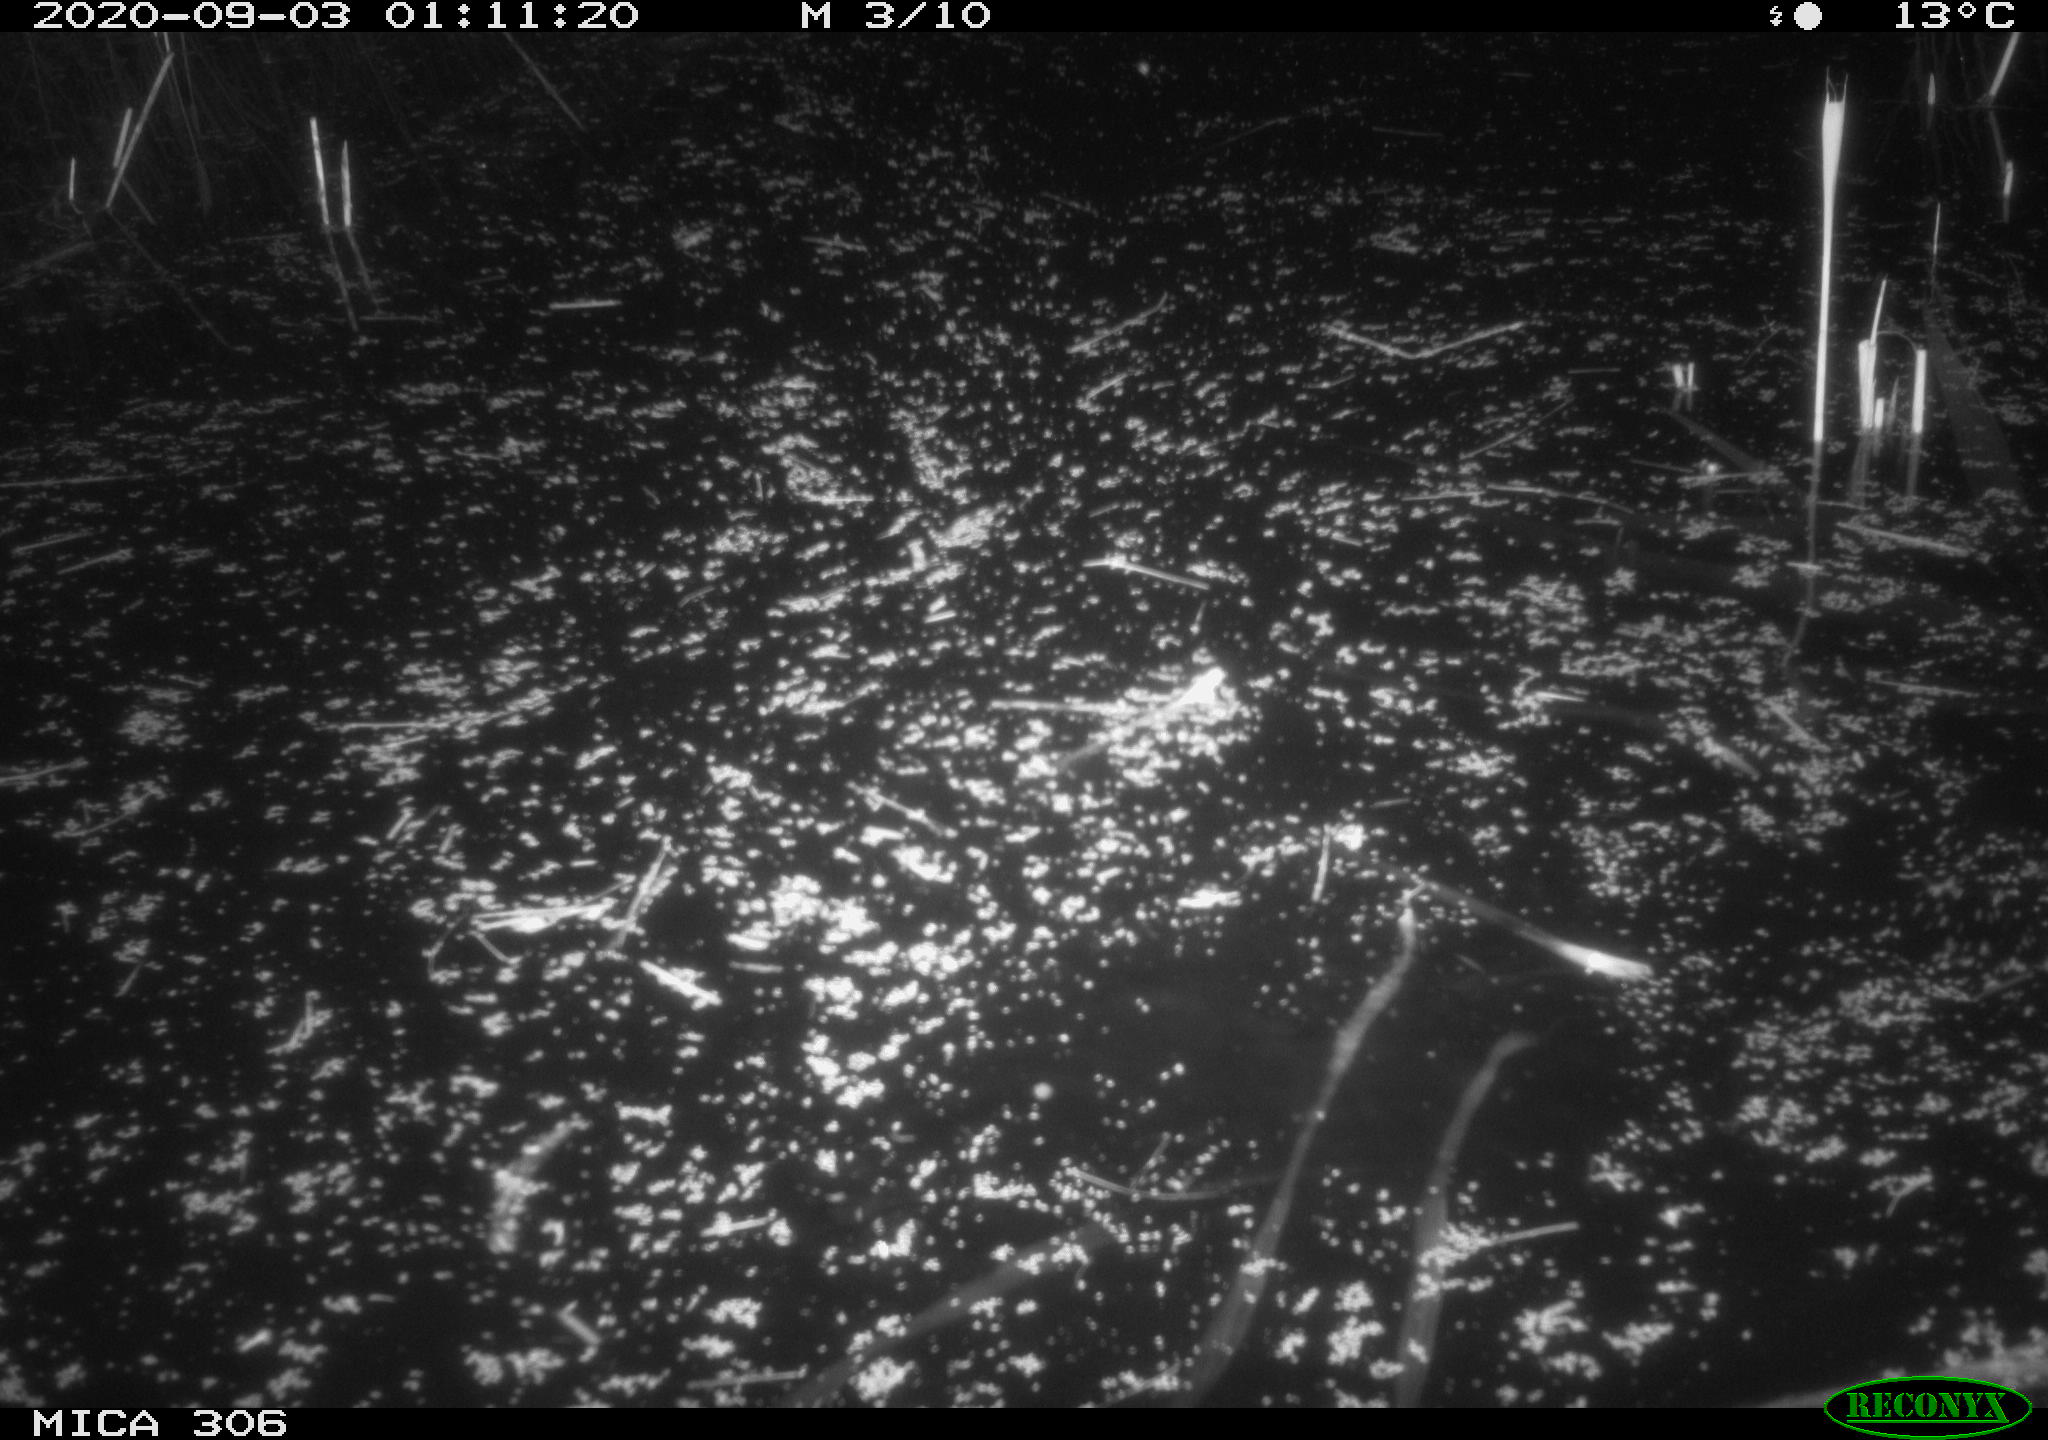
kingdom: Animalia
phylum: Chordata
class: Mammalia
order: Rodentia
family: Muridae
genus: Rattus
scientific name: Rattus norvegicus
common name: Brown rat
